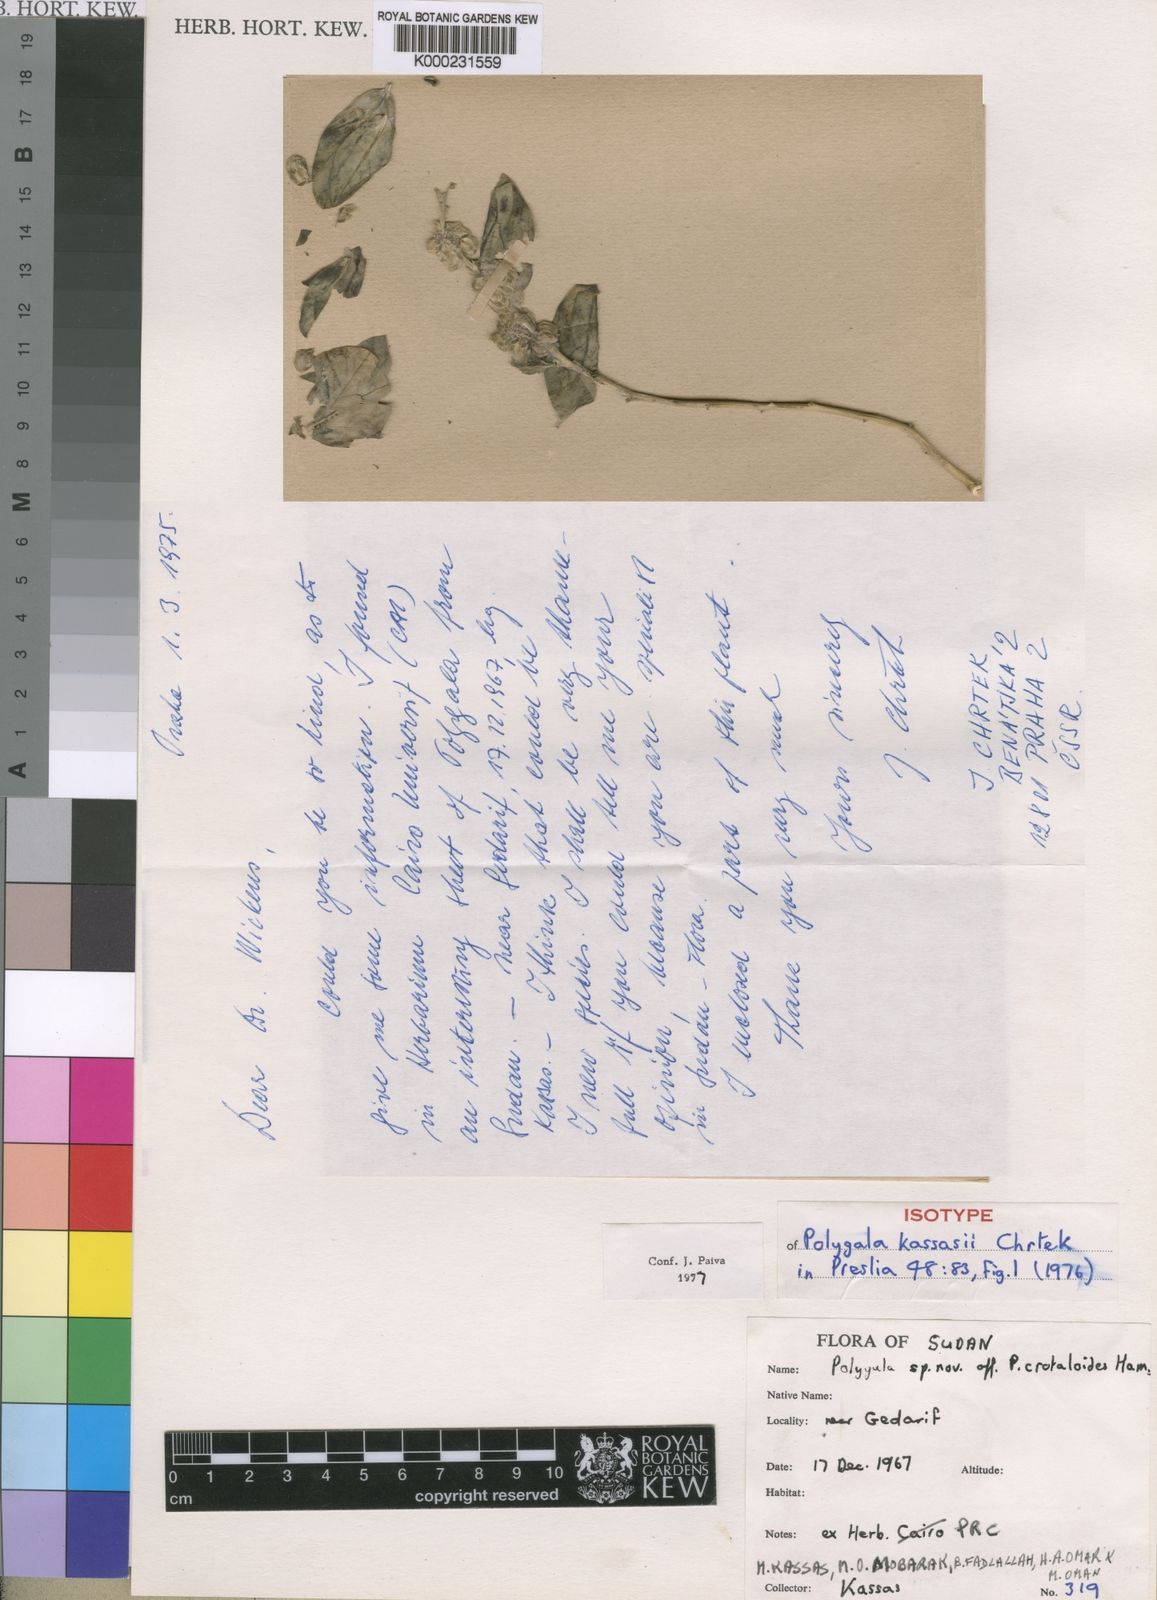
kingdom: Plantae
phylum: Tracheophyta
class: Magnoliopsida
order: Fabales
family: Polygalaceae
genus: Polygala
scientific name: Polygala sadebeckiana
